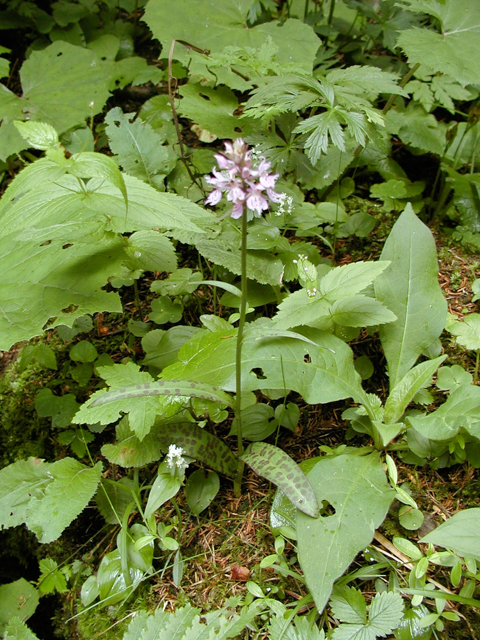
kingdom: Plantae
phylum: Tracheophyta
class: Liliopsida
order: Asparagales
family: Orchidaceae
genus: Dactylorhiza
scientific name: Dactylorhiza maculata
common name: Heath spotted-orchid
